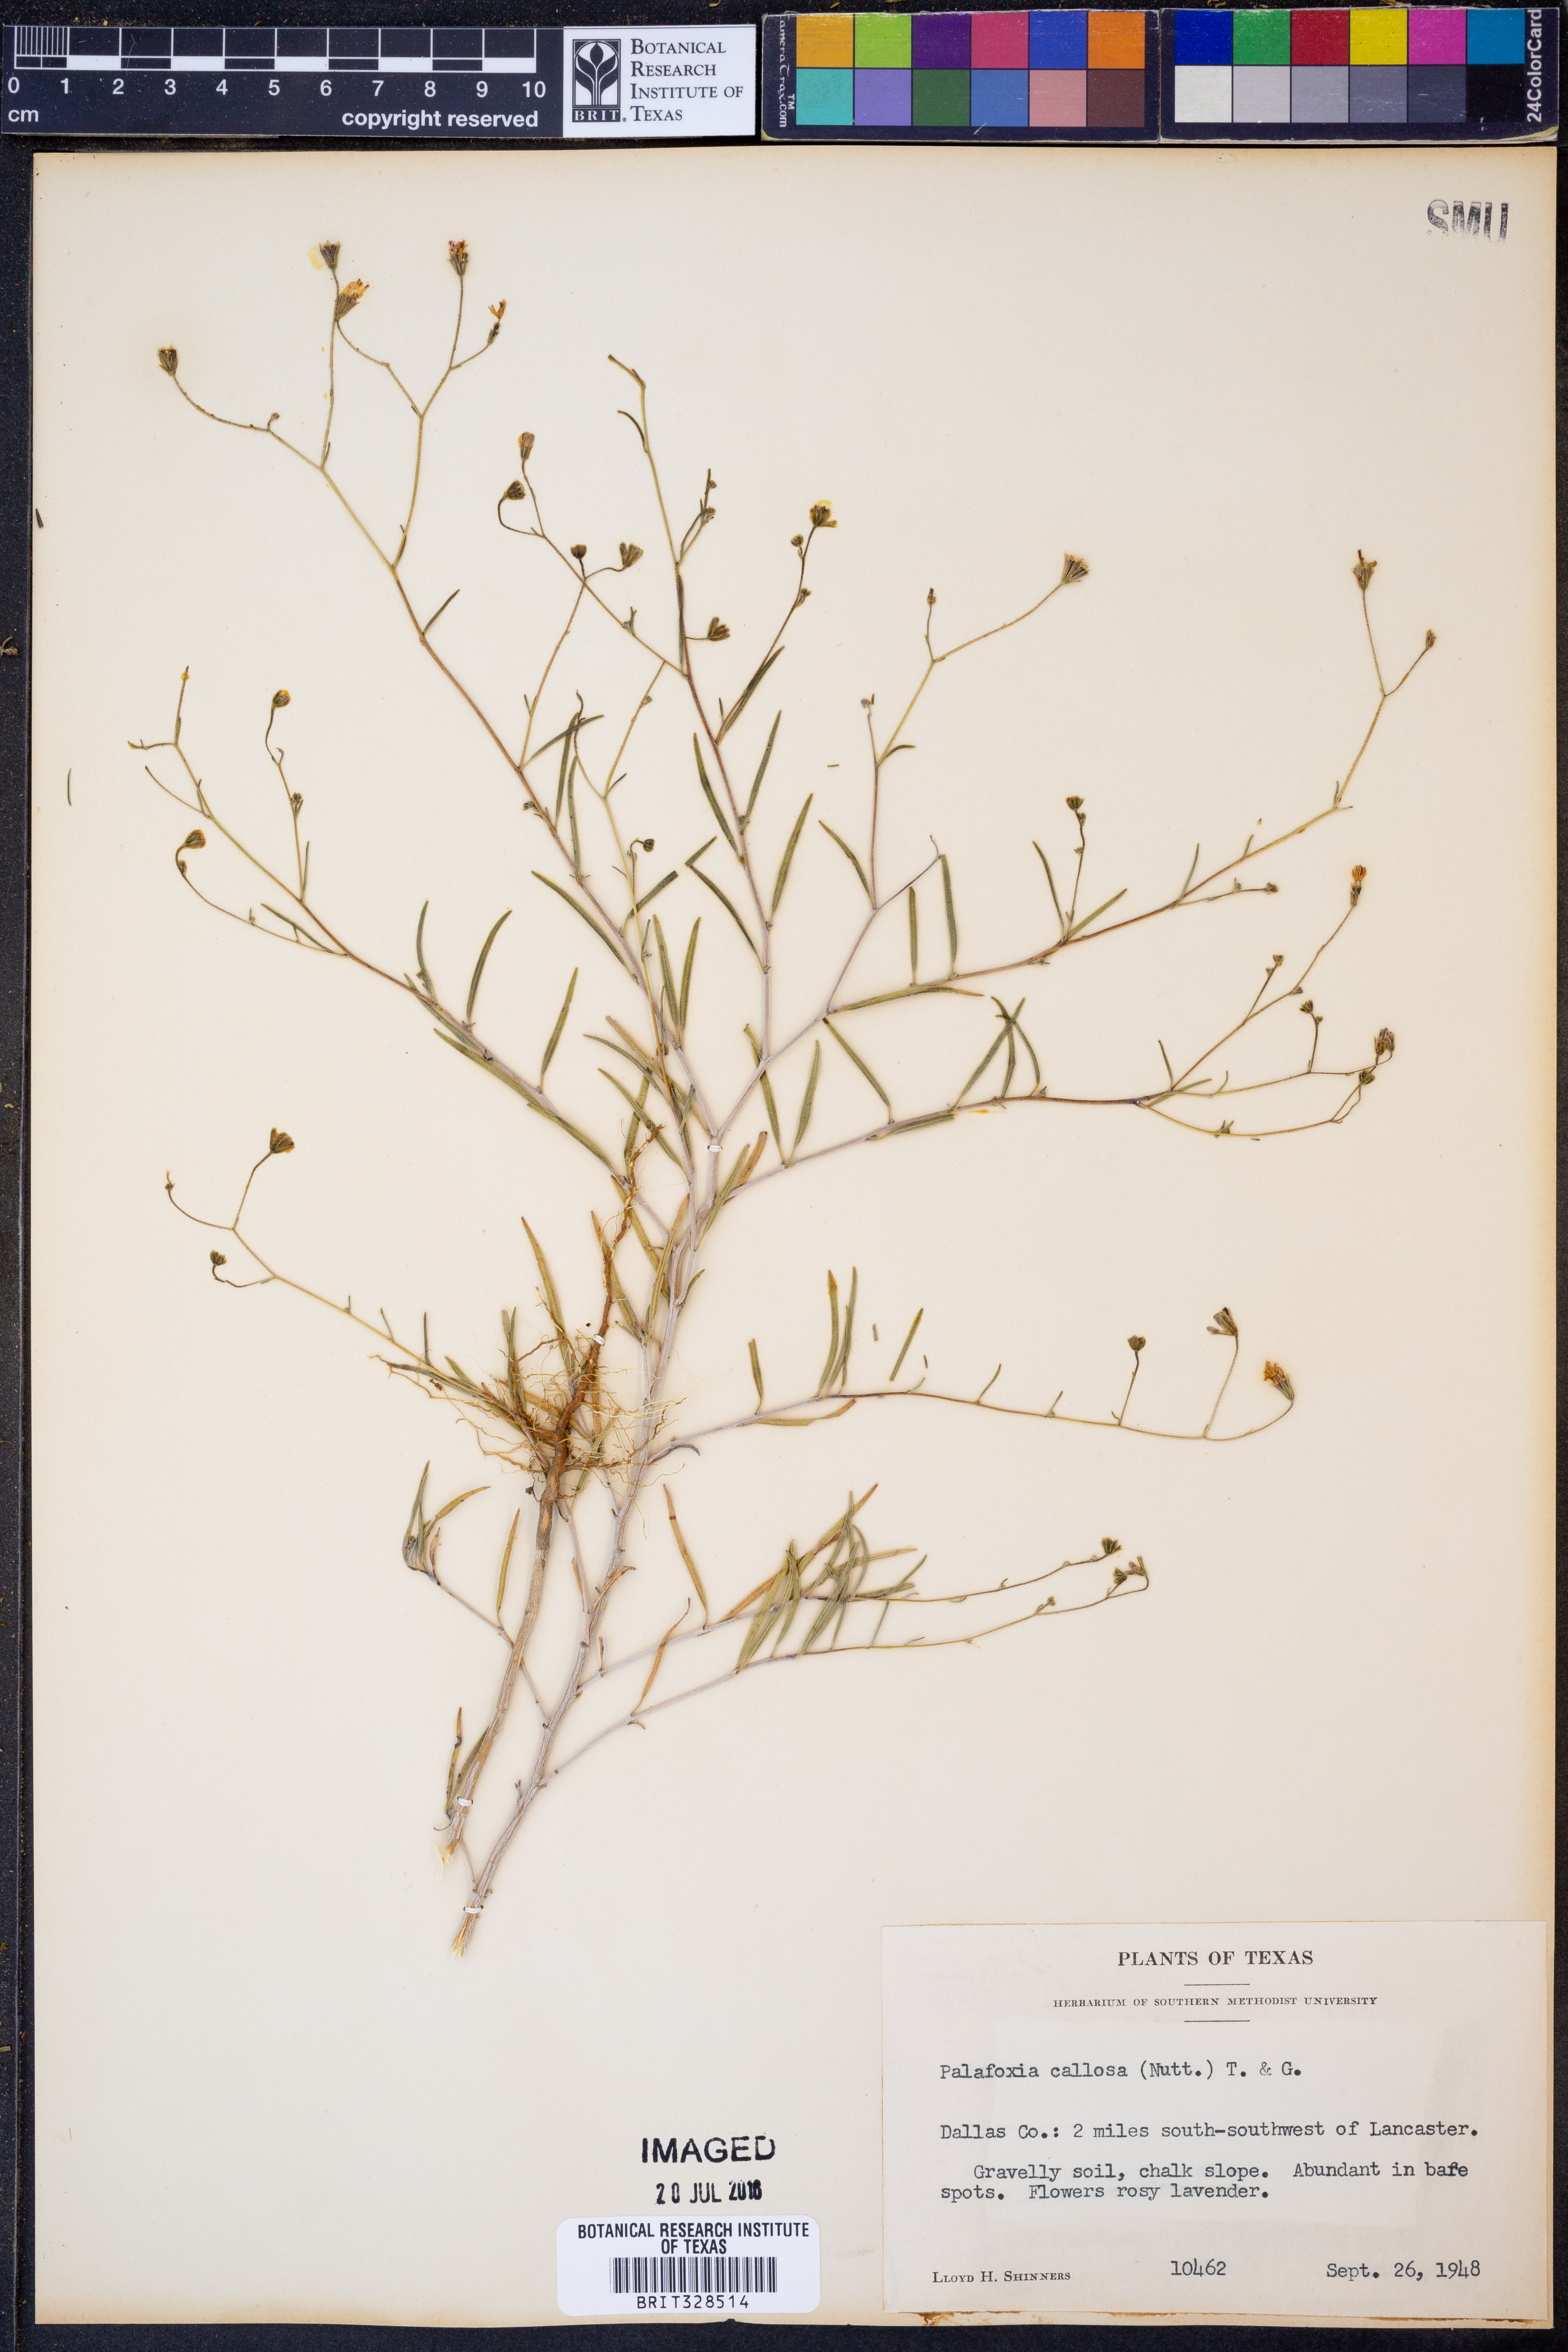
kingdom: Plantae
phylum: Tracheophyta
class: Magnoliopsida
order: Asterales
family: Asteraceae
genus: Palafoxia
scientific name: Palafoxia callosa
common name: Small palafox
